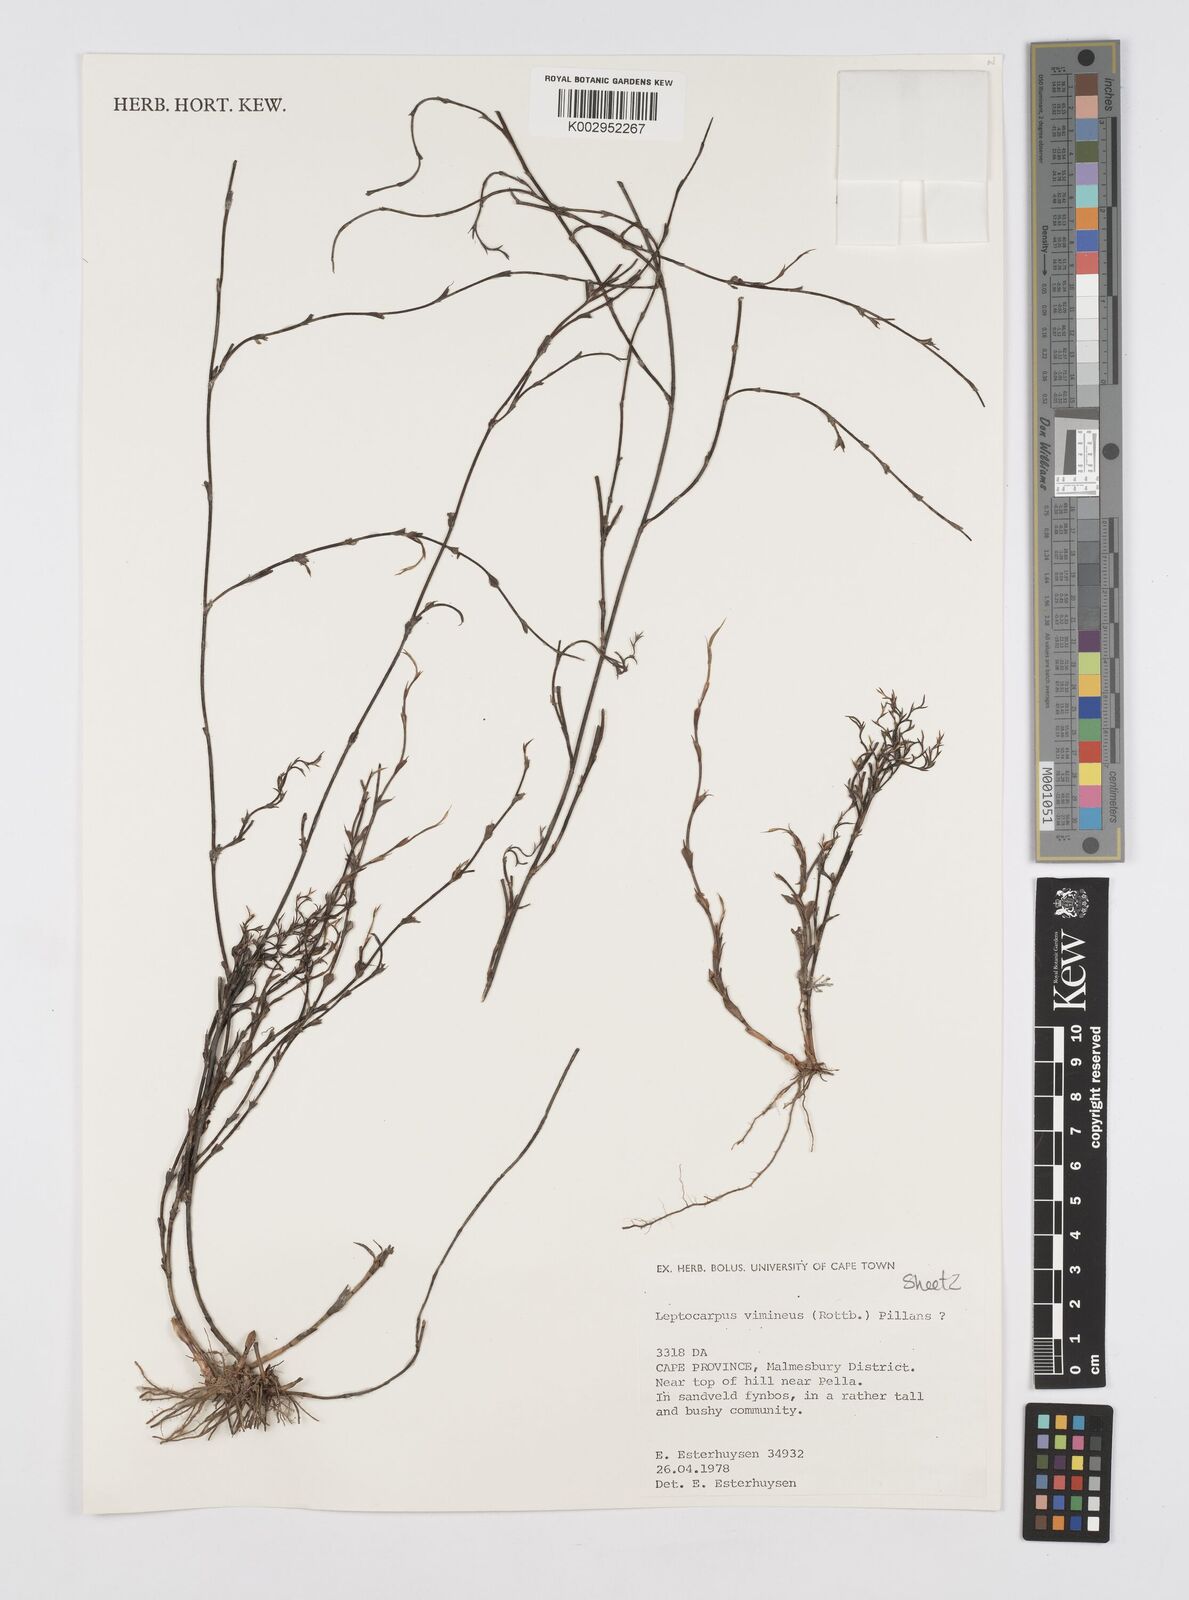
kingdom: Plantae
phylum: Tracheophyta
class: Liliopsida
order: Poales
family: Restionaceae
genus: Restio
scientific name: Restio vimineus
